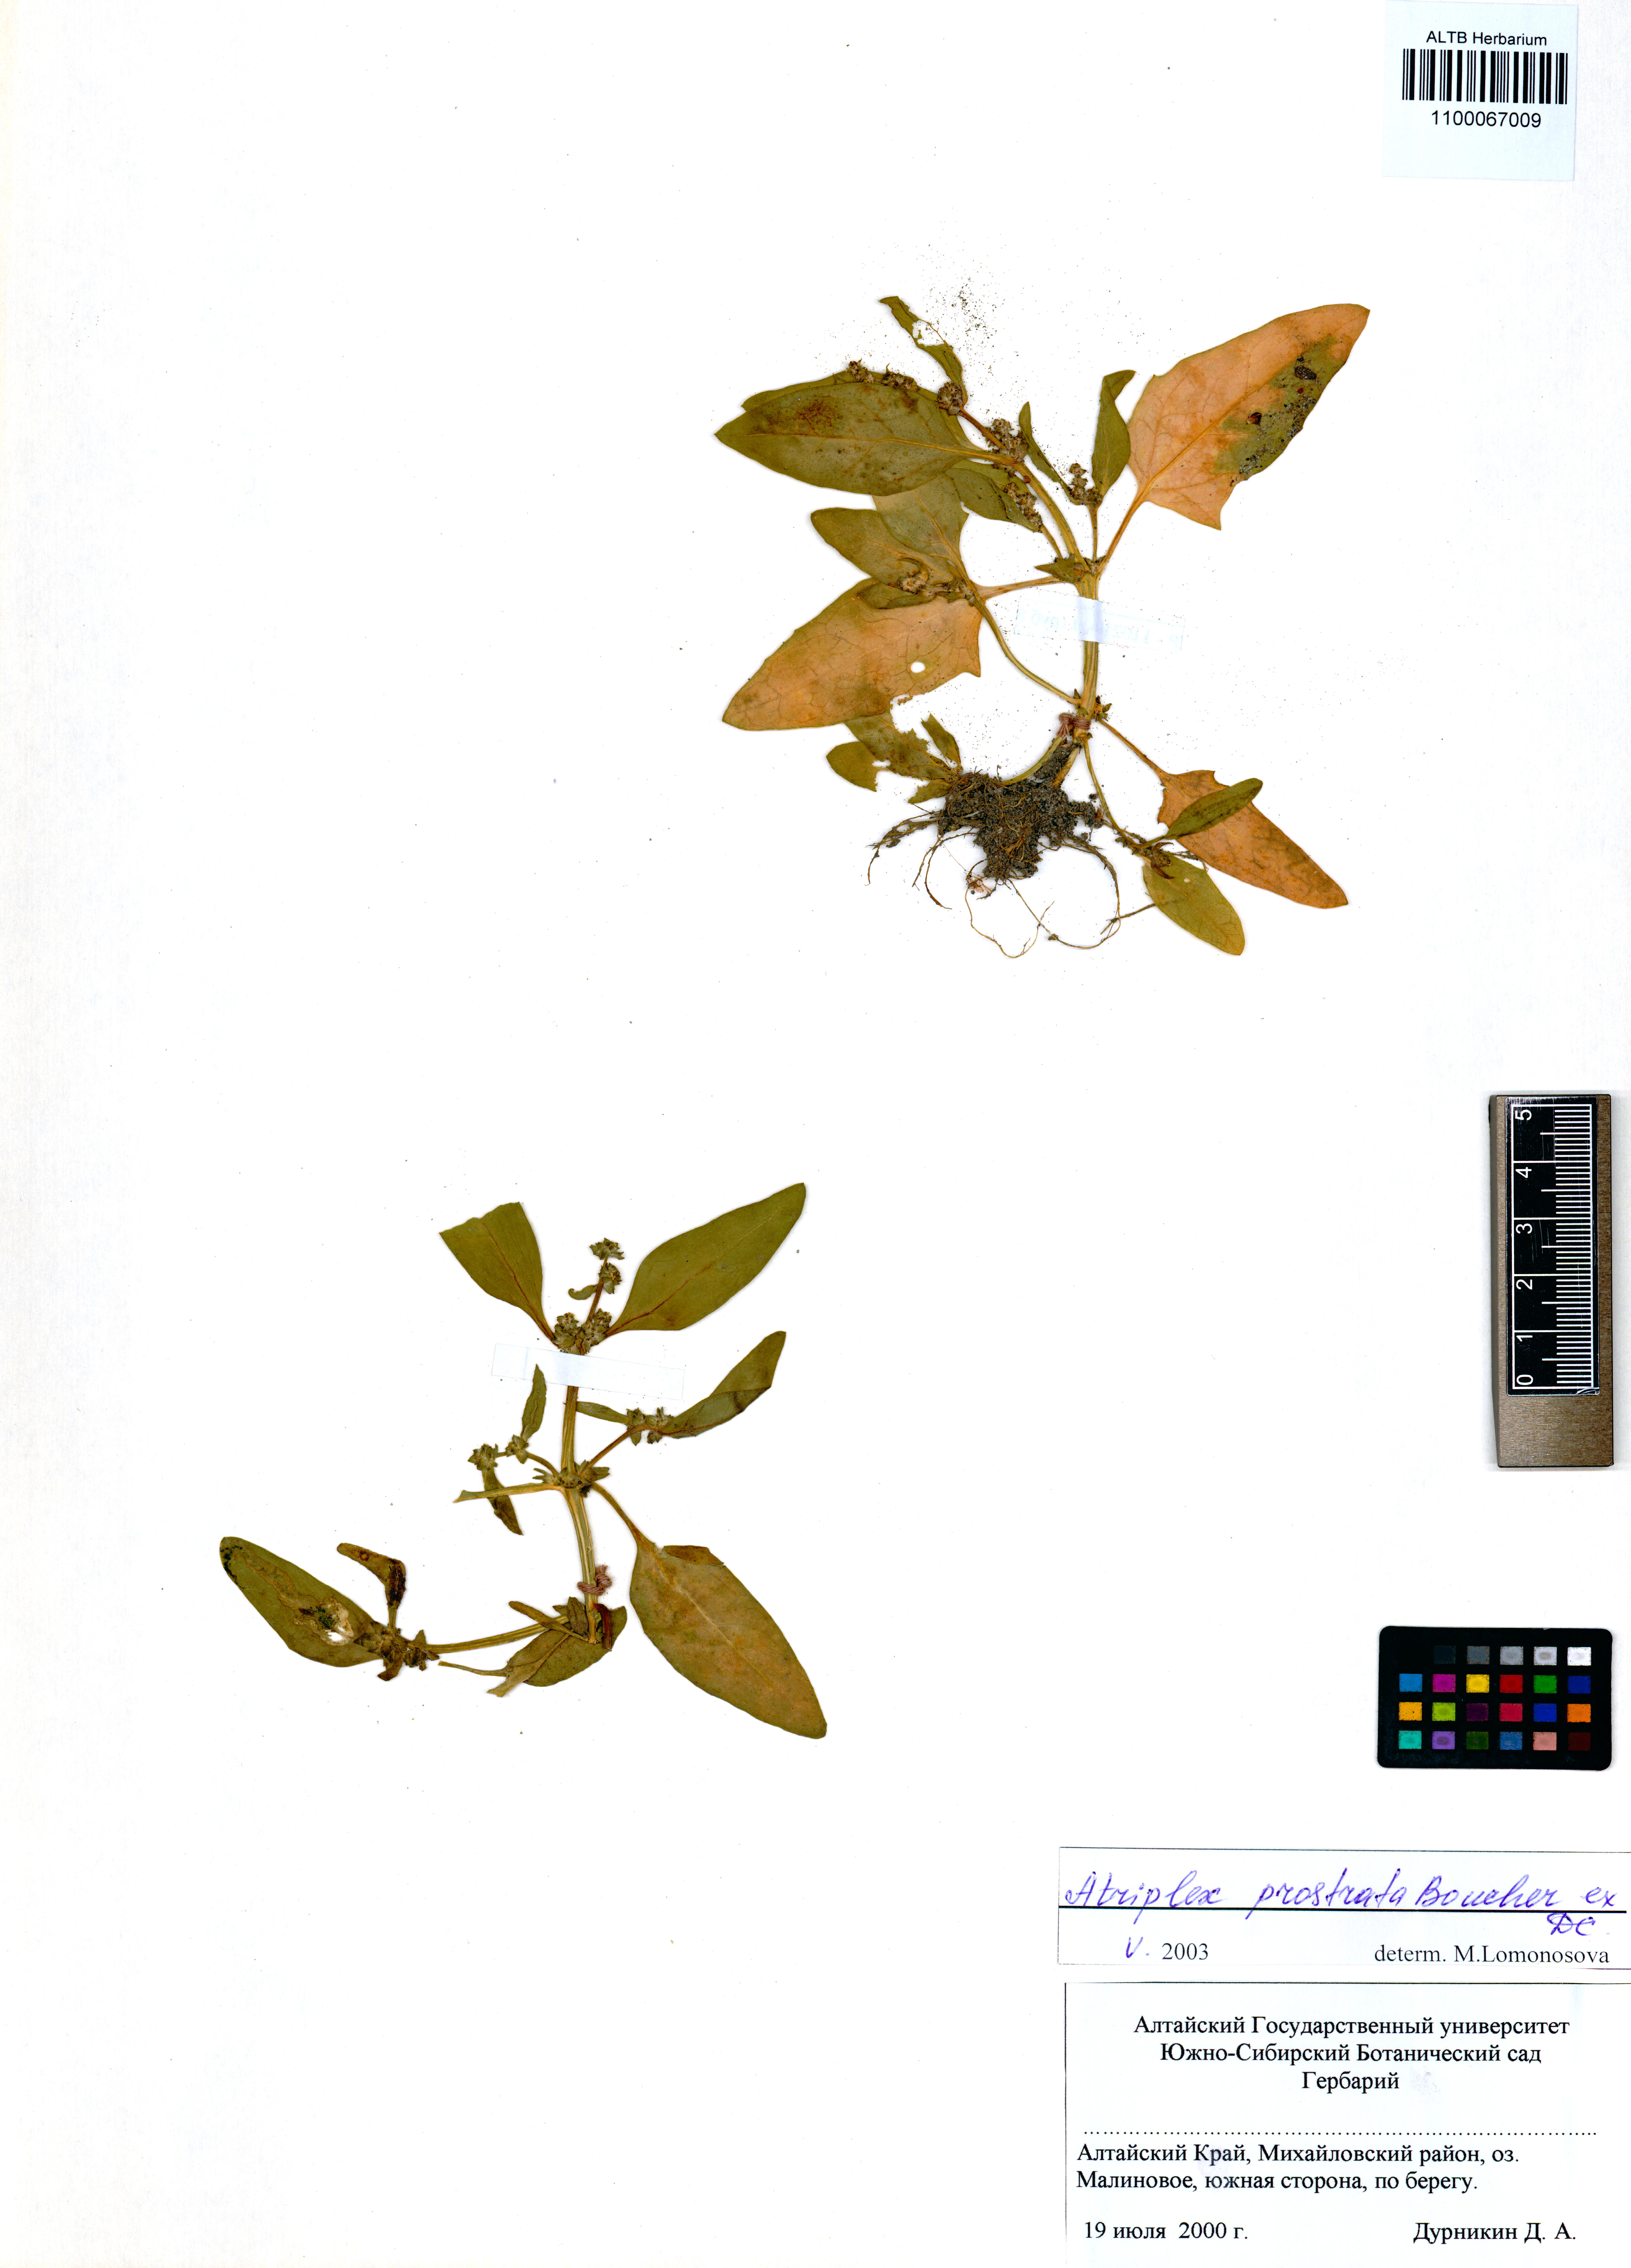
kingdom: Plantae
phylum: Tracheophyta
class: Magnoliopsida
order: Caryophyllales
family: Amaranthaceae
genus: Atriplex
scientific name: Atriplex prostrata
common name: Spear-leaved orache
